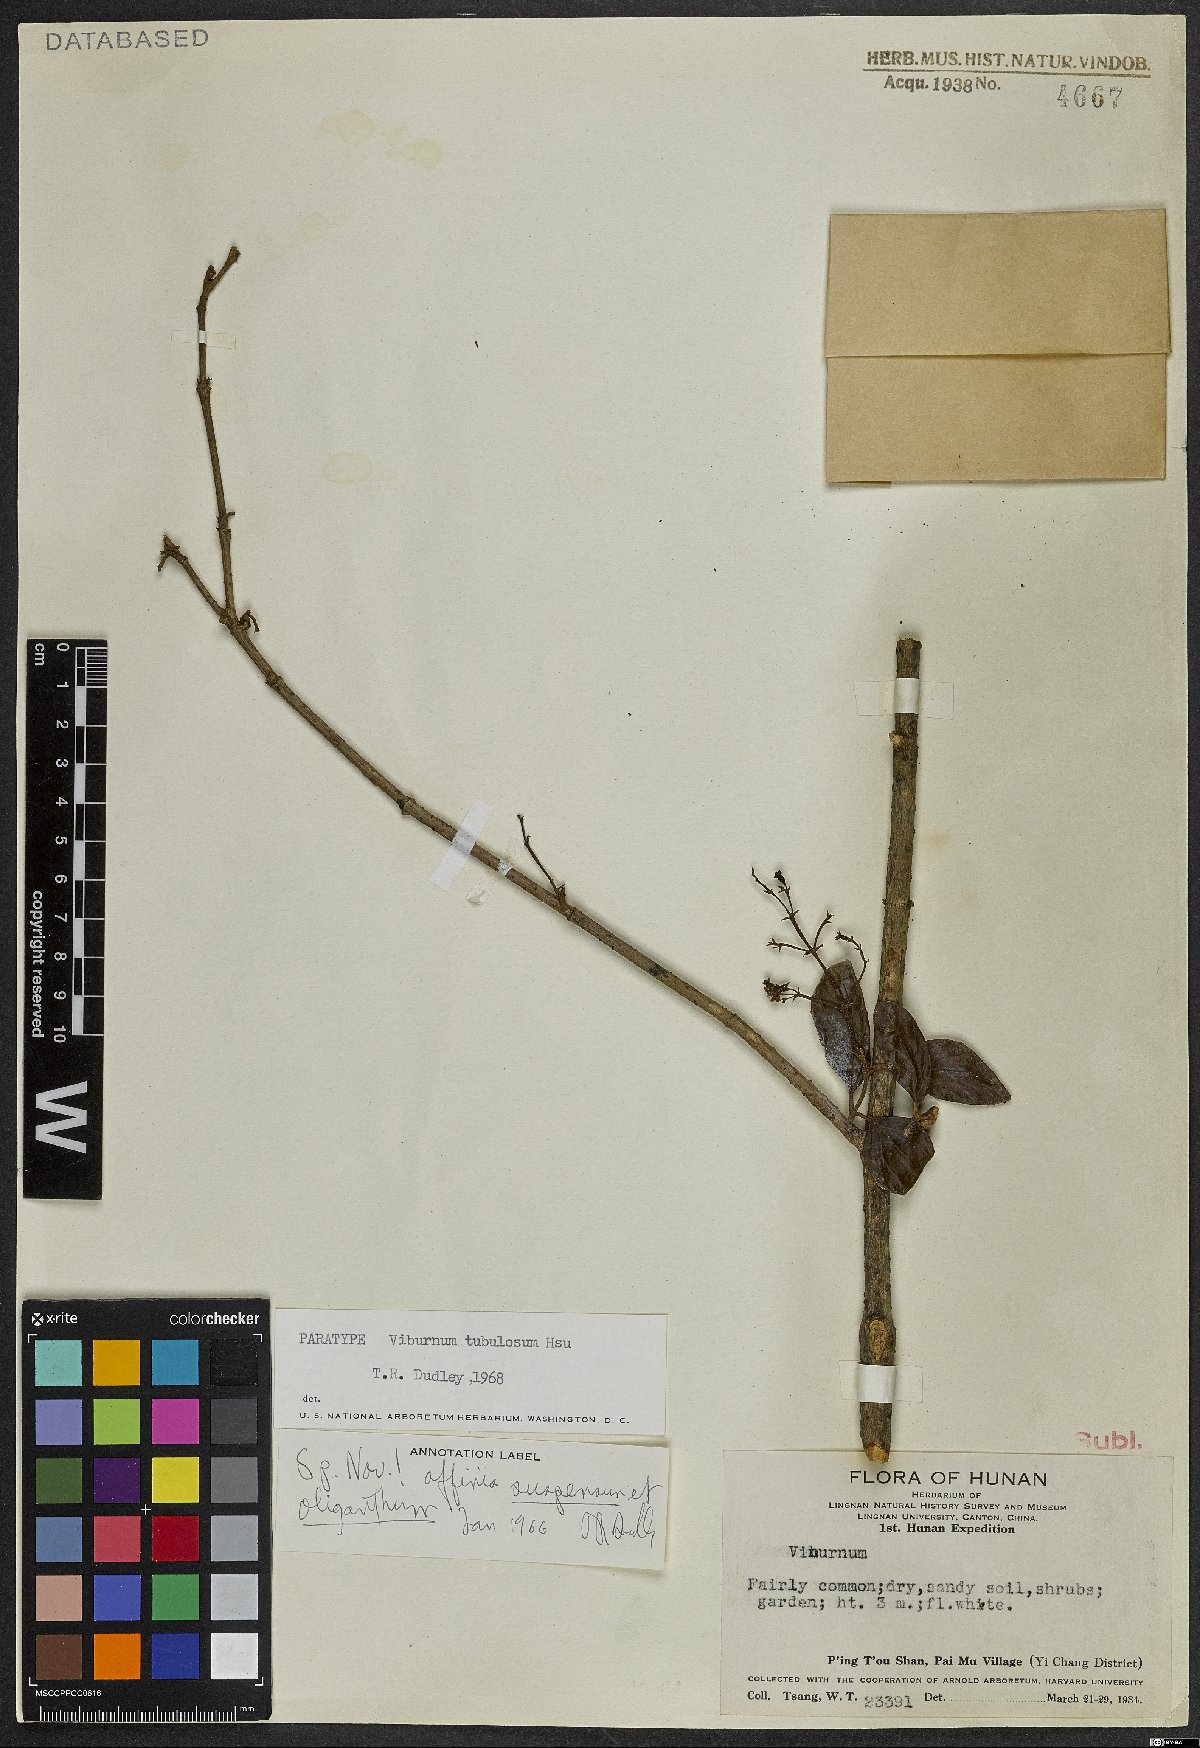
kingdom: Plantae
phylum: Tracheophyta
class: Magnoliopsida
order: Dipsacales
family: Viburnaceae
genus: Viburnum
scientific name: Viburnum taitoense
